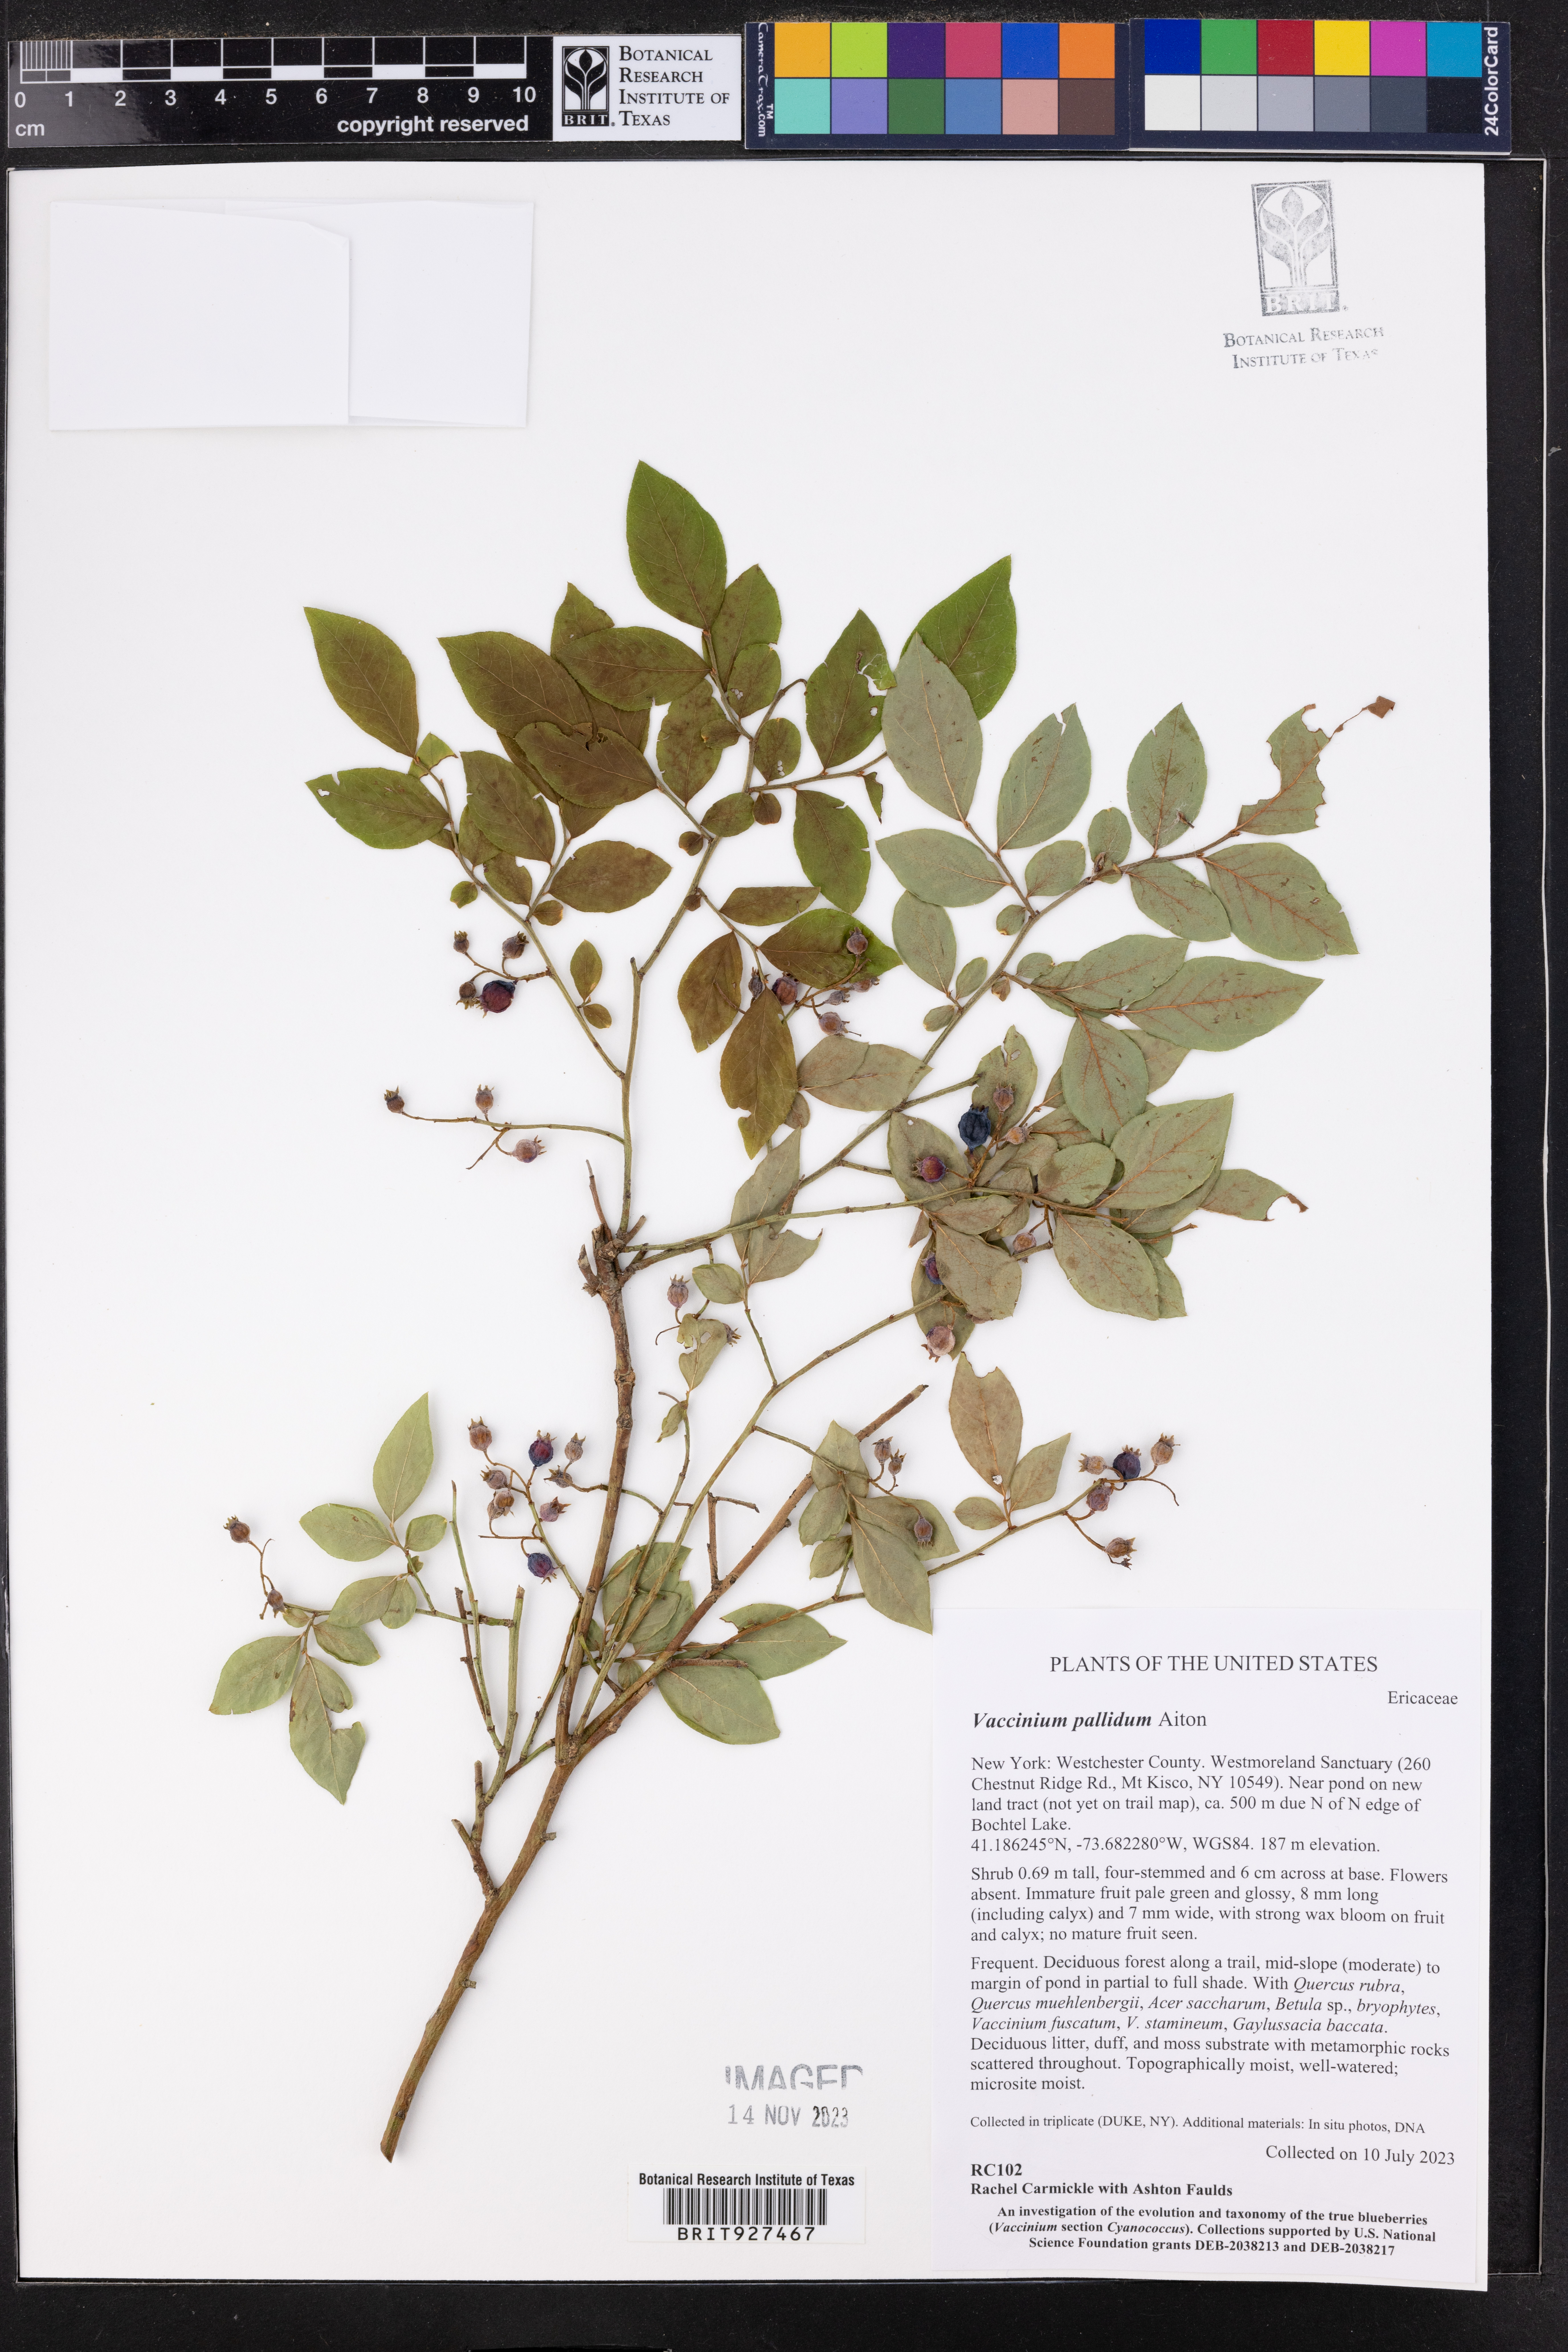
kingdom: Plantae
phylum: Tracheophyta
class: Magnoliopsida
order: Ericales
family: Ericaceae
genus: Vaccinium
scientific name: Vaccinium pallidum
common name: Blue ridge blueberry
